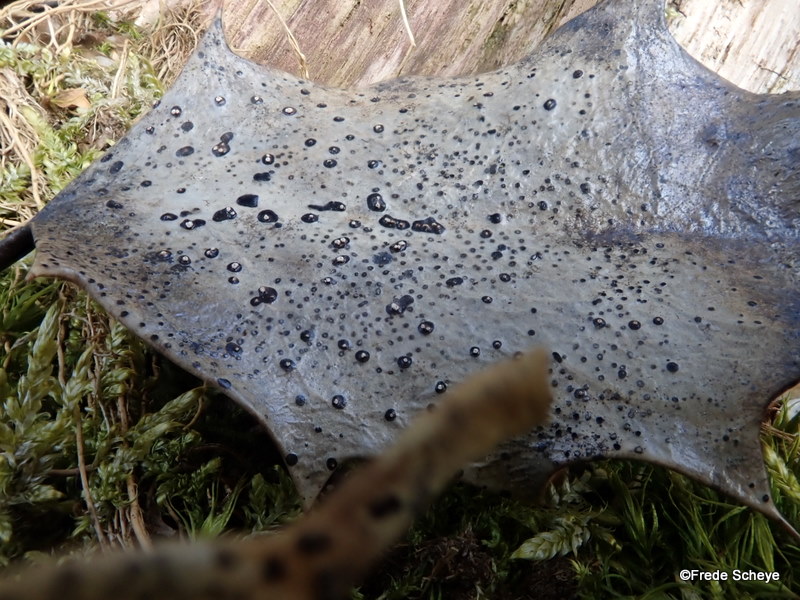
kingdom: Fungi
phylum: Ascomycota
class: Leotiomycetes
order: Phacidiales
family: Phacidiaceae
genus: Phacidium
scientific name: Phacidium lauri
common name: kristtorn-tandskive
